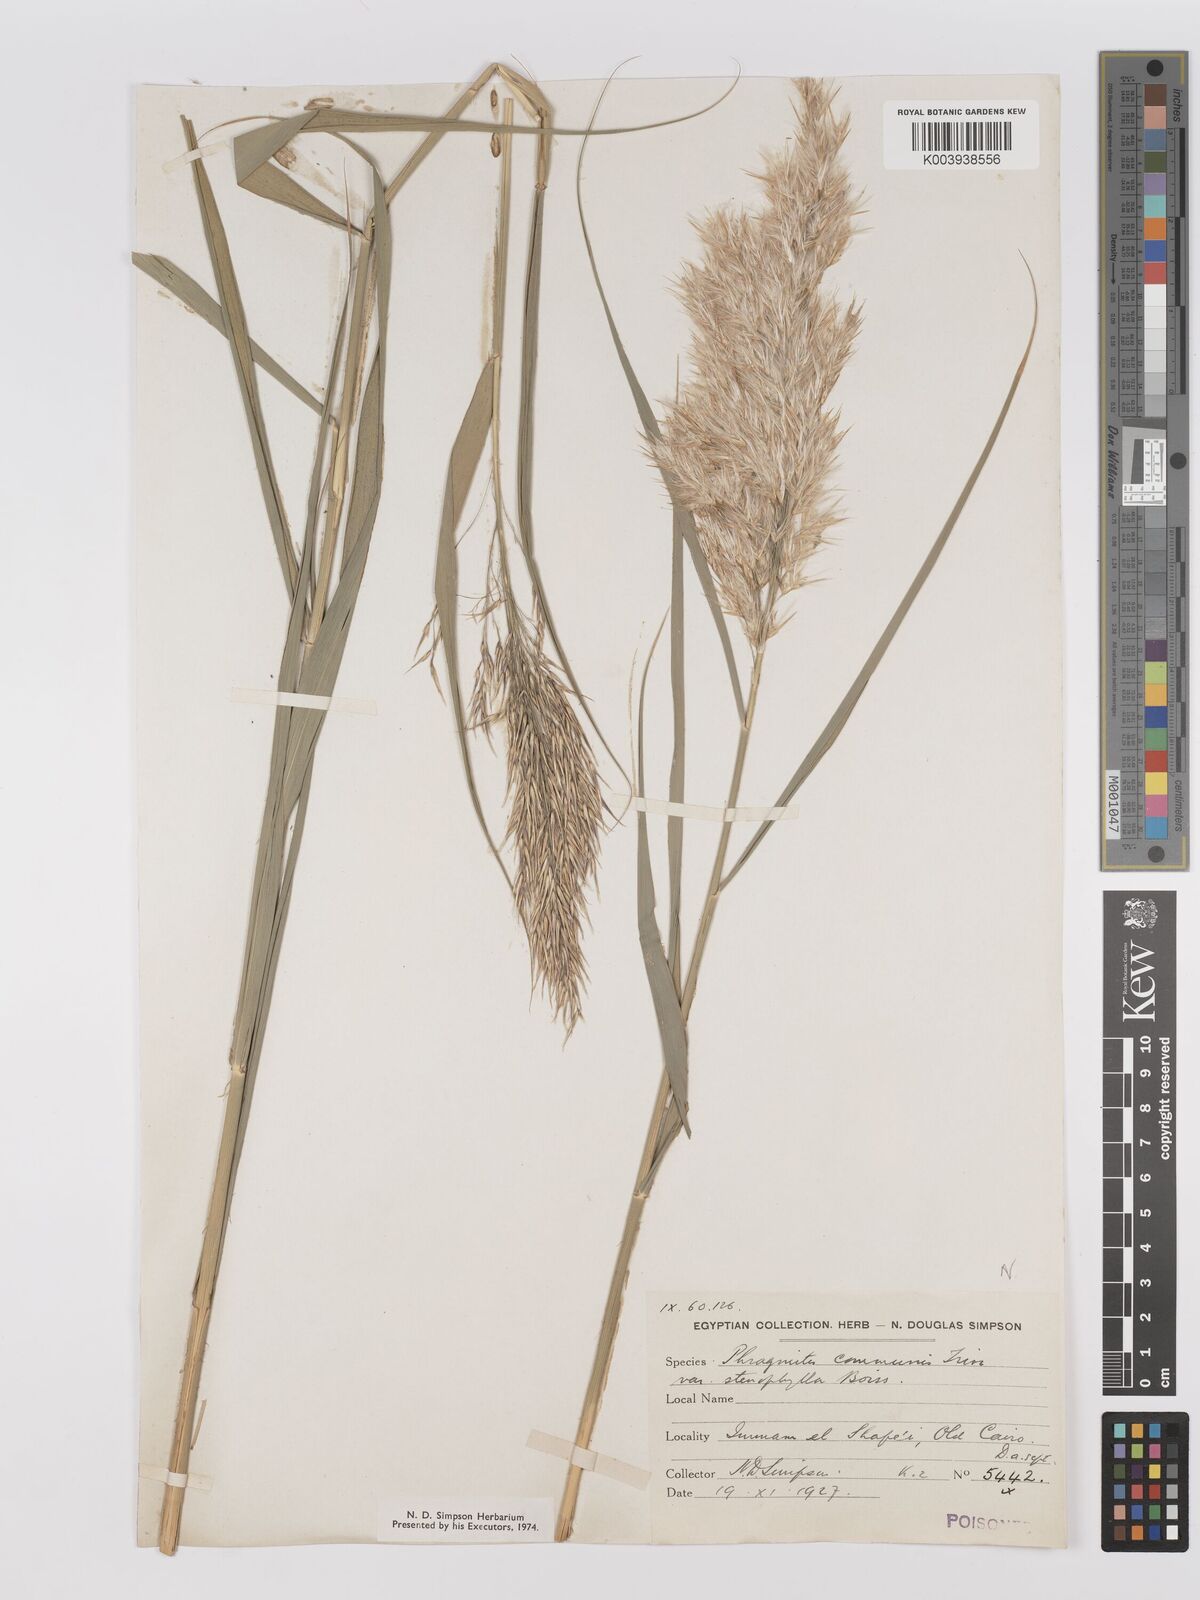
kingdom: Plantae
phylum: Tracheophyta
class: Liliopsida
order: Poales
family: Poaceae
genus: Phragmites
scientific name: Phragmites australis
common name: Common reed
